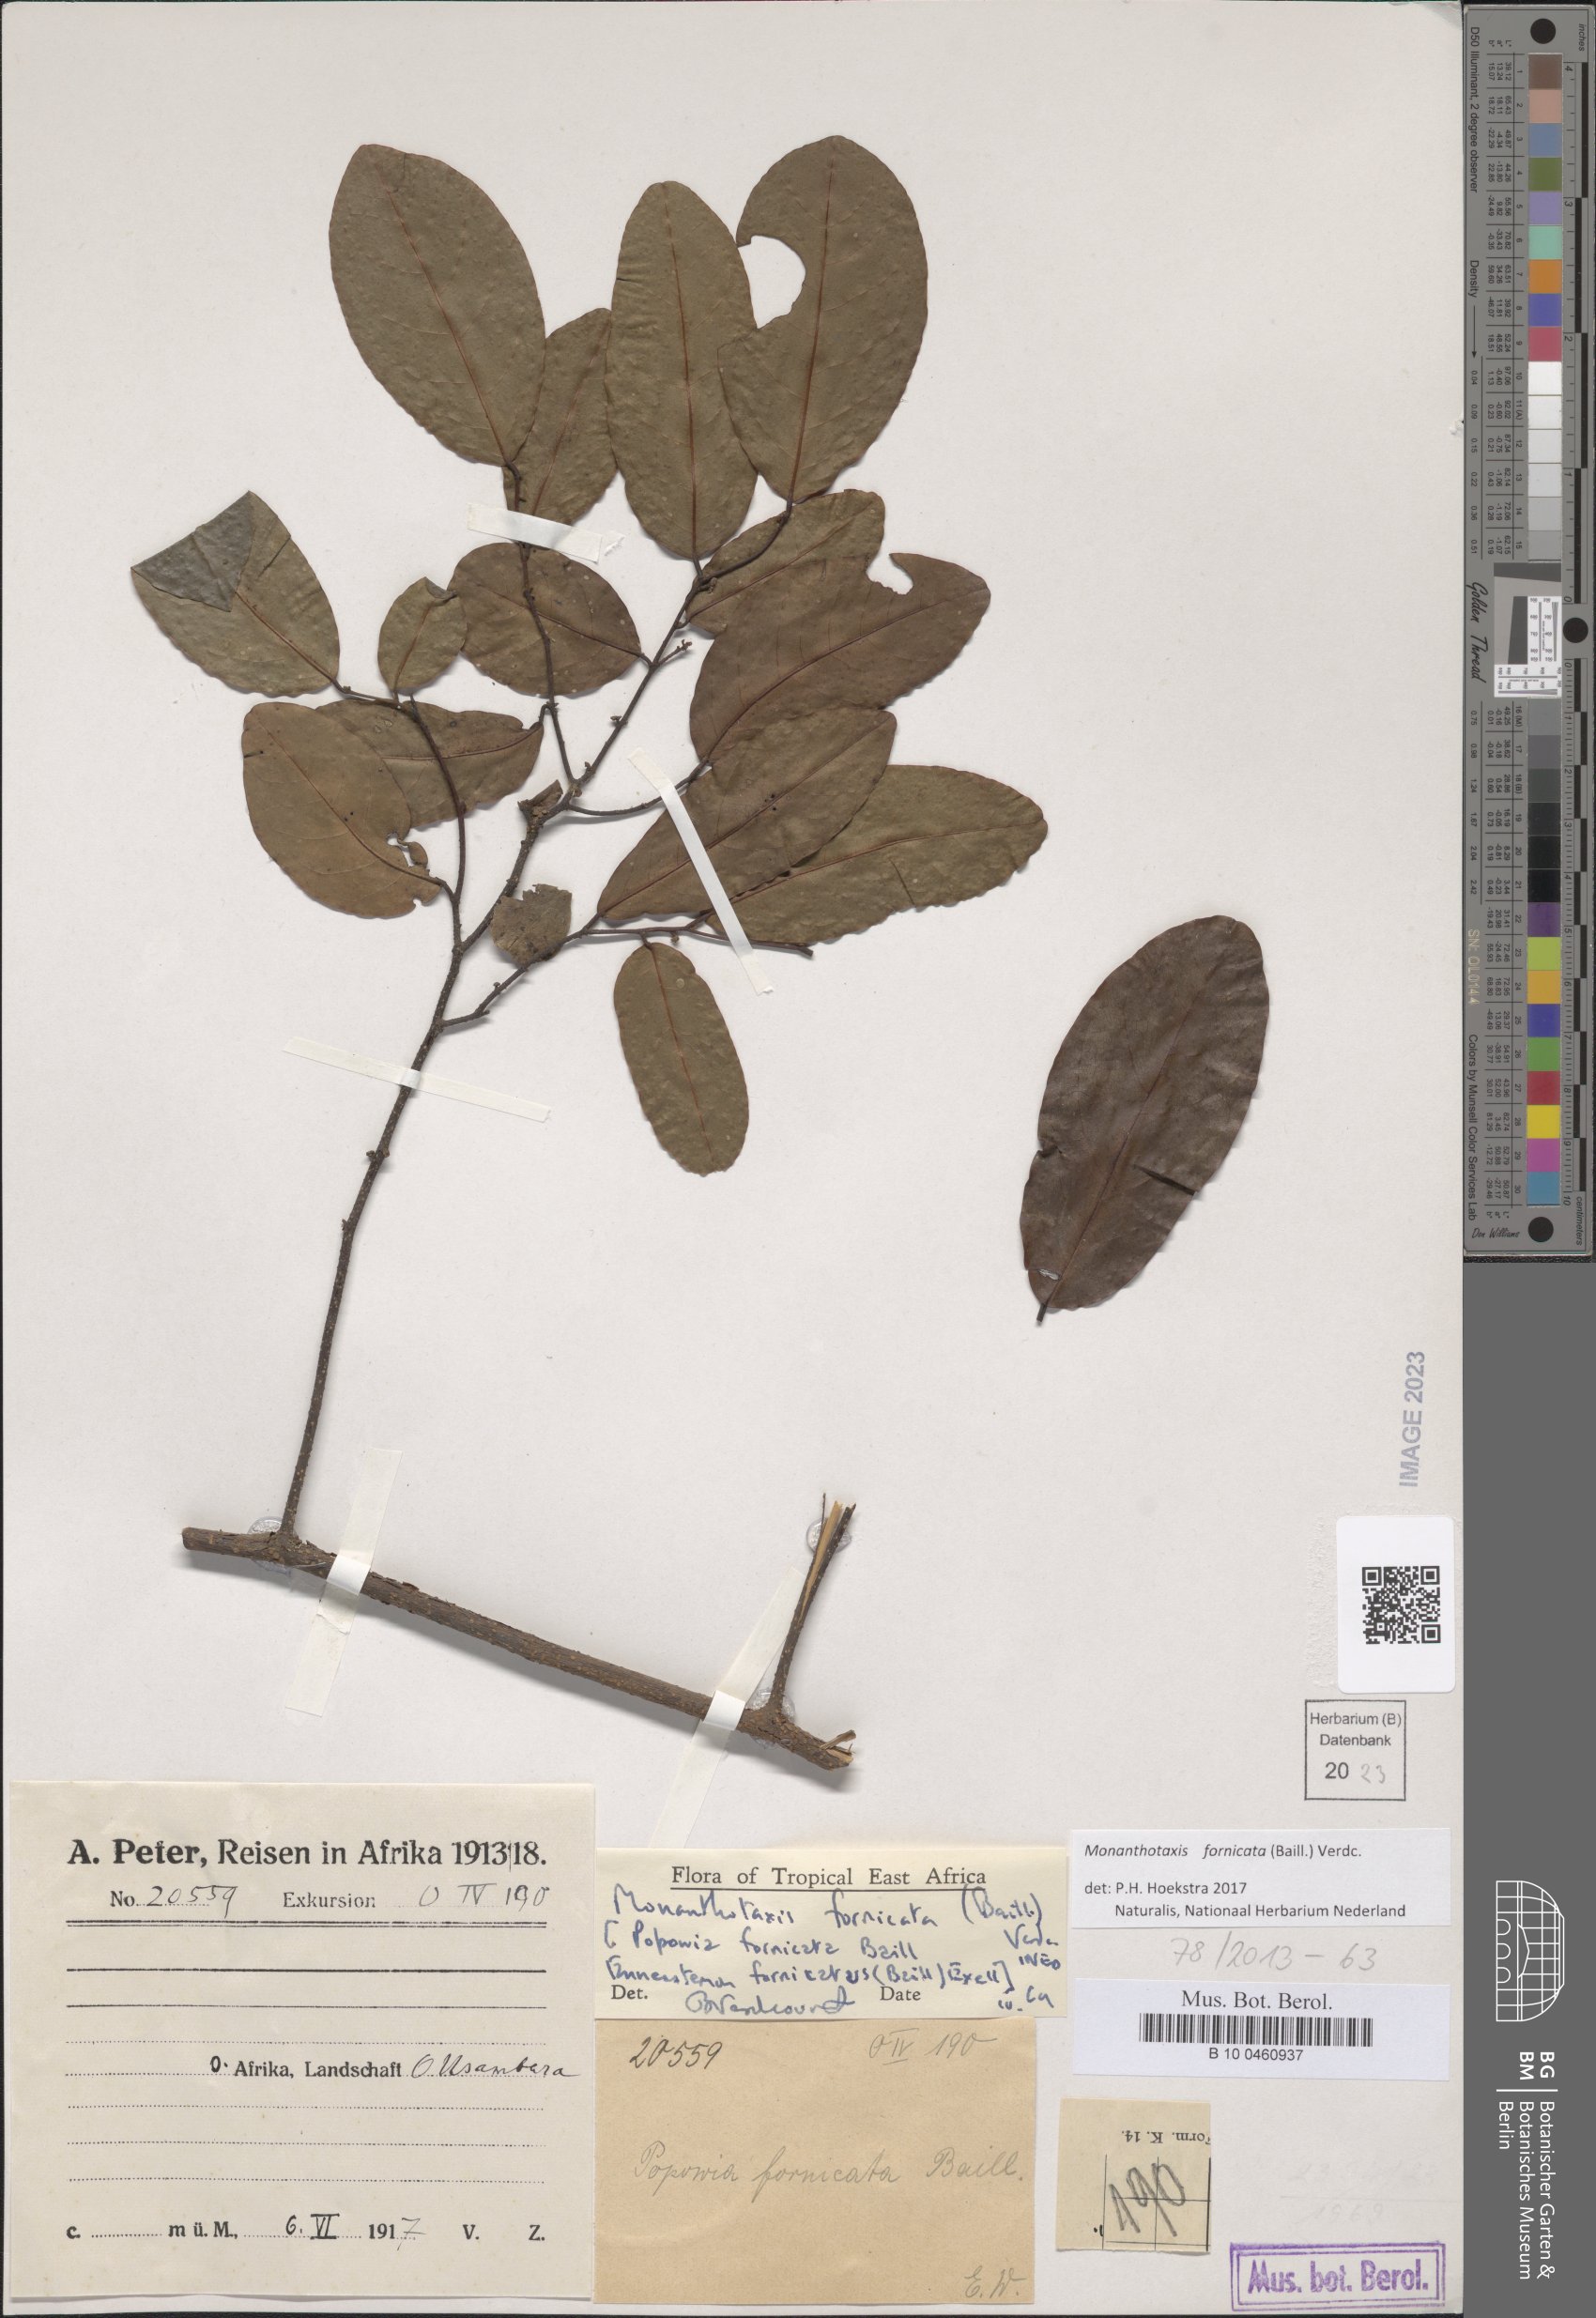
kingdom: Plantae
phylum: Tracheophyta
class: Magnoliopsida
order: Magnoliales
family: Annonaceae
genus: Monanthotaxis
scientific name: Monanthotaxis fornicata
